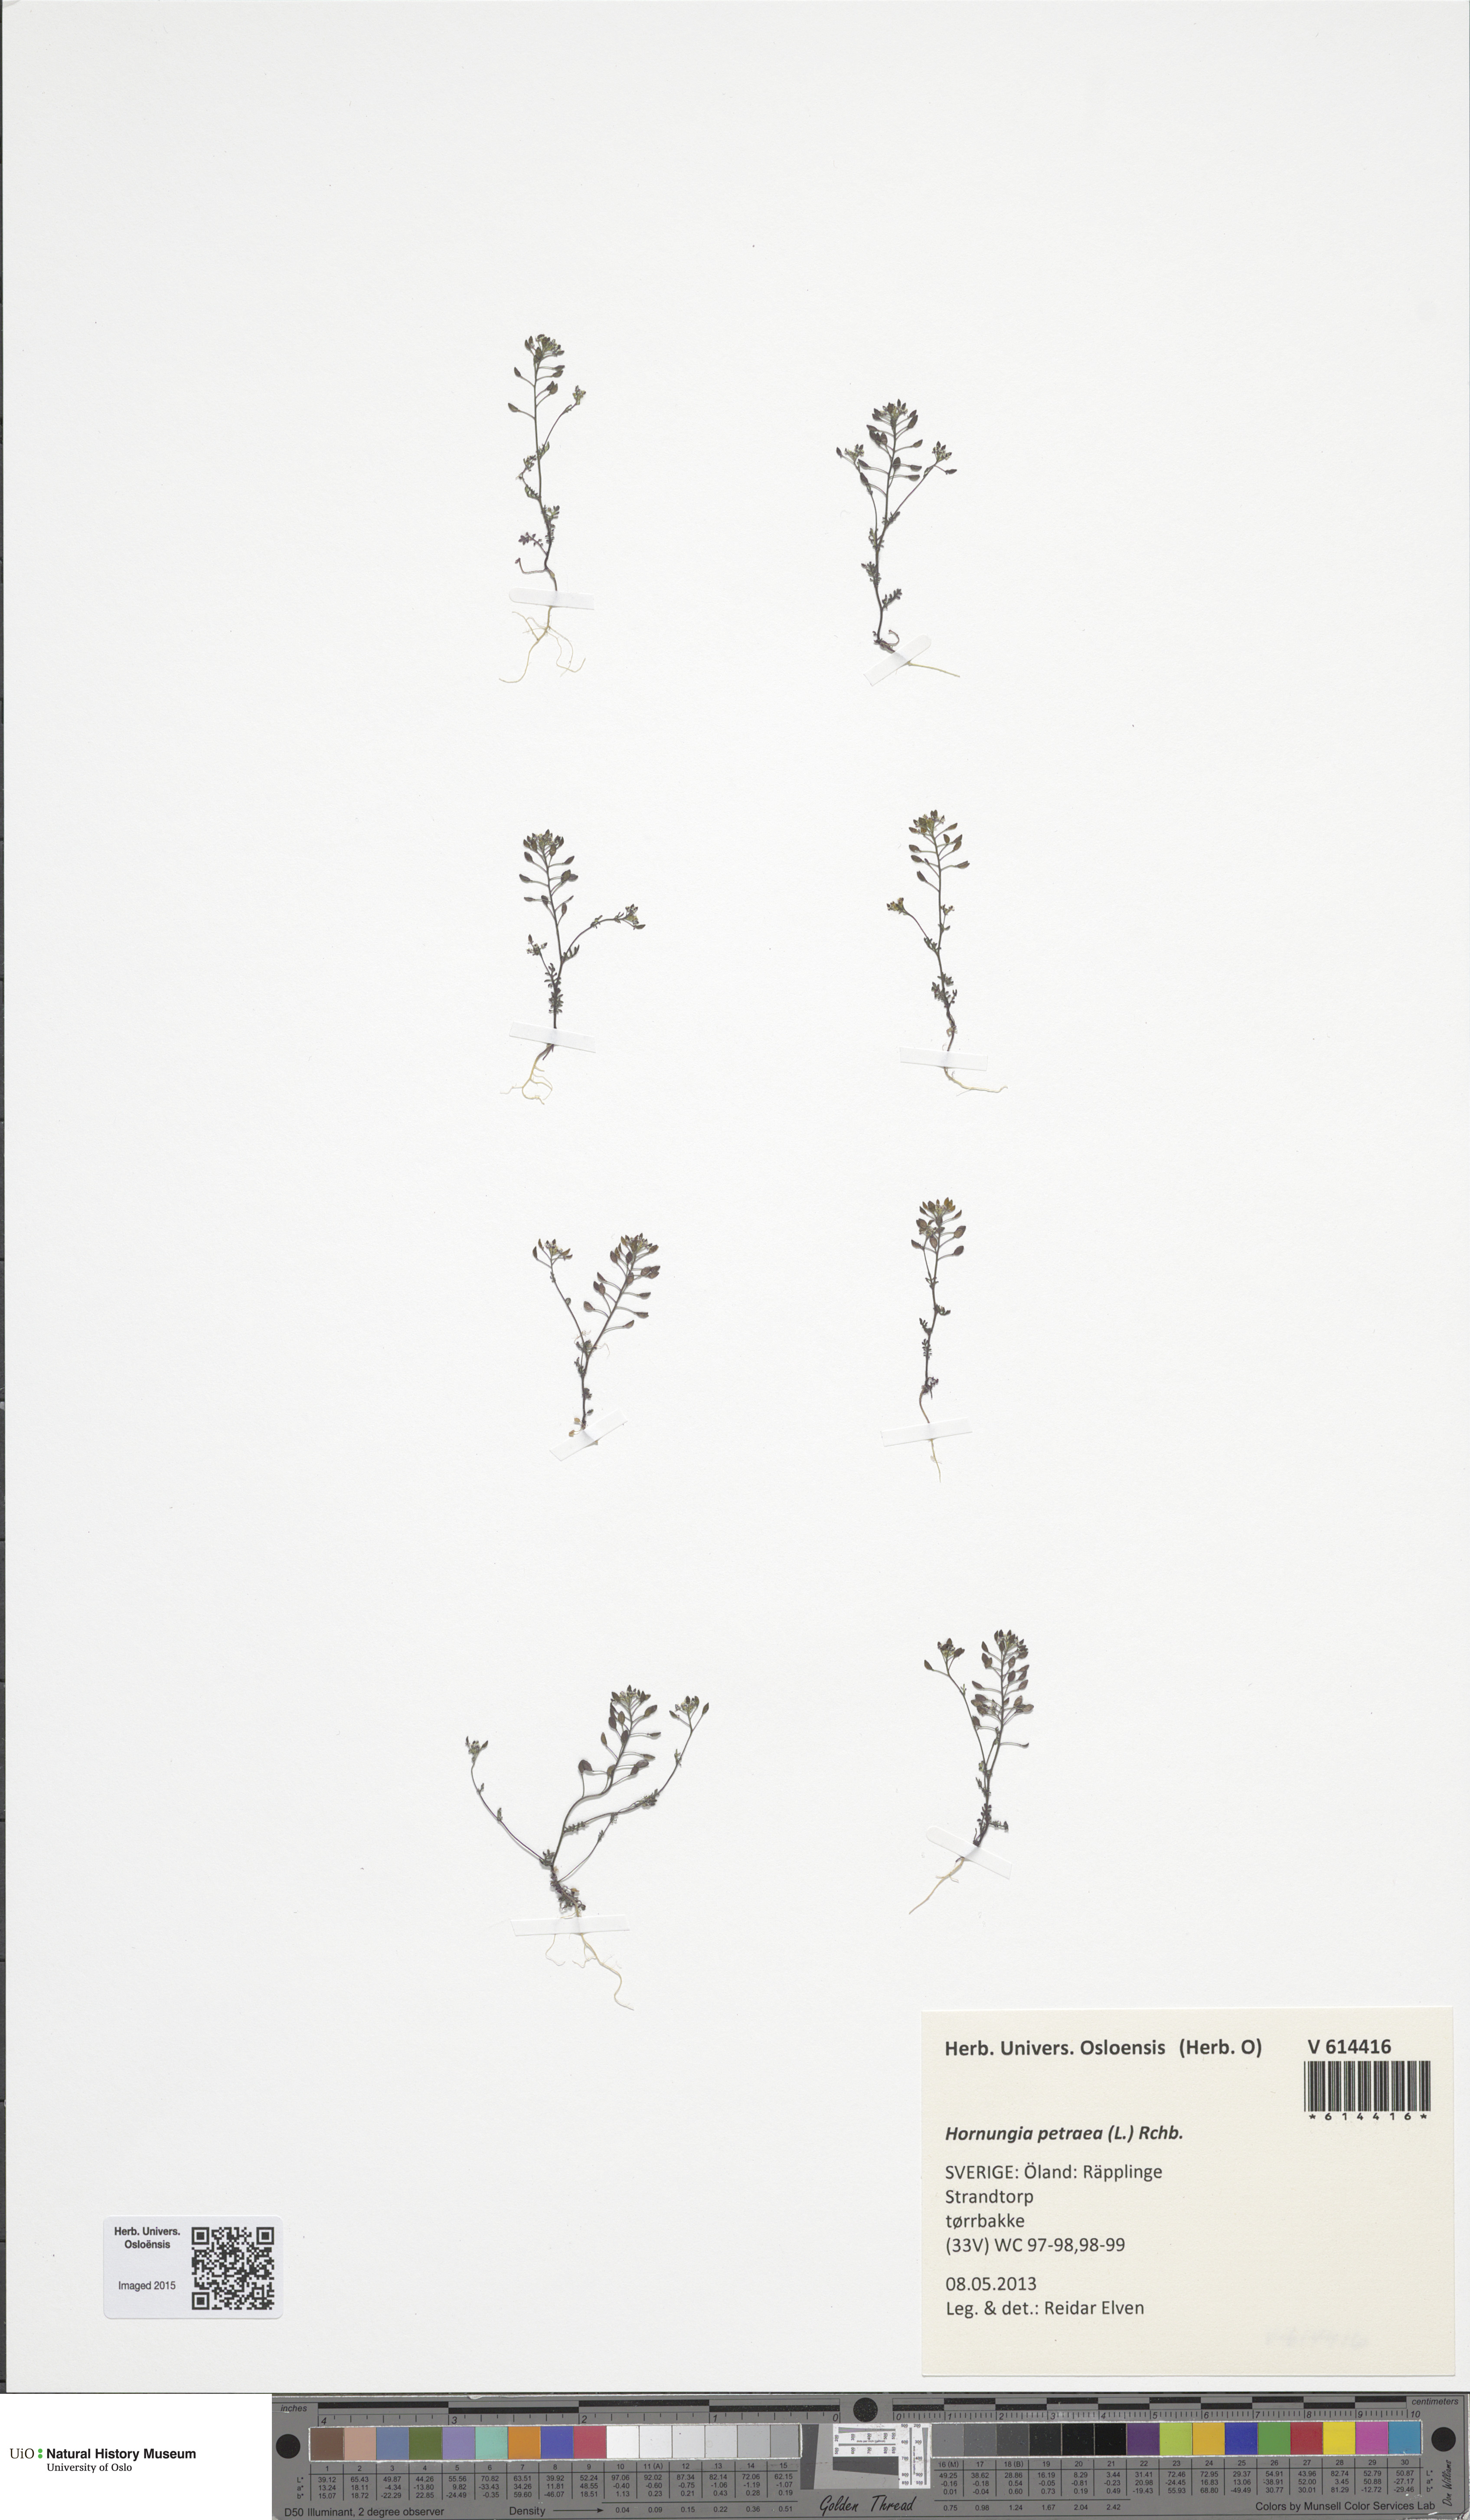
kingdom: Plantae
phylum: Tracheophyta
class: Magnoliopsida
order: Brassicales
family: Brassicaceae
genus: Hornungia
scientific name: Hornungia petraea
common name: Hutchinsia
